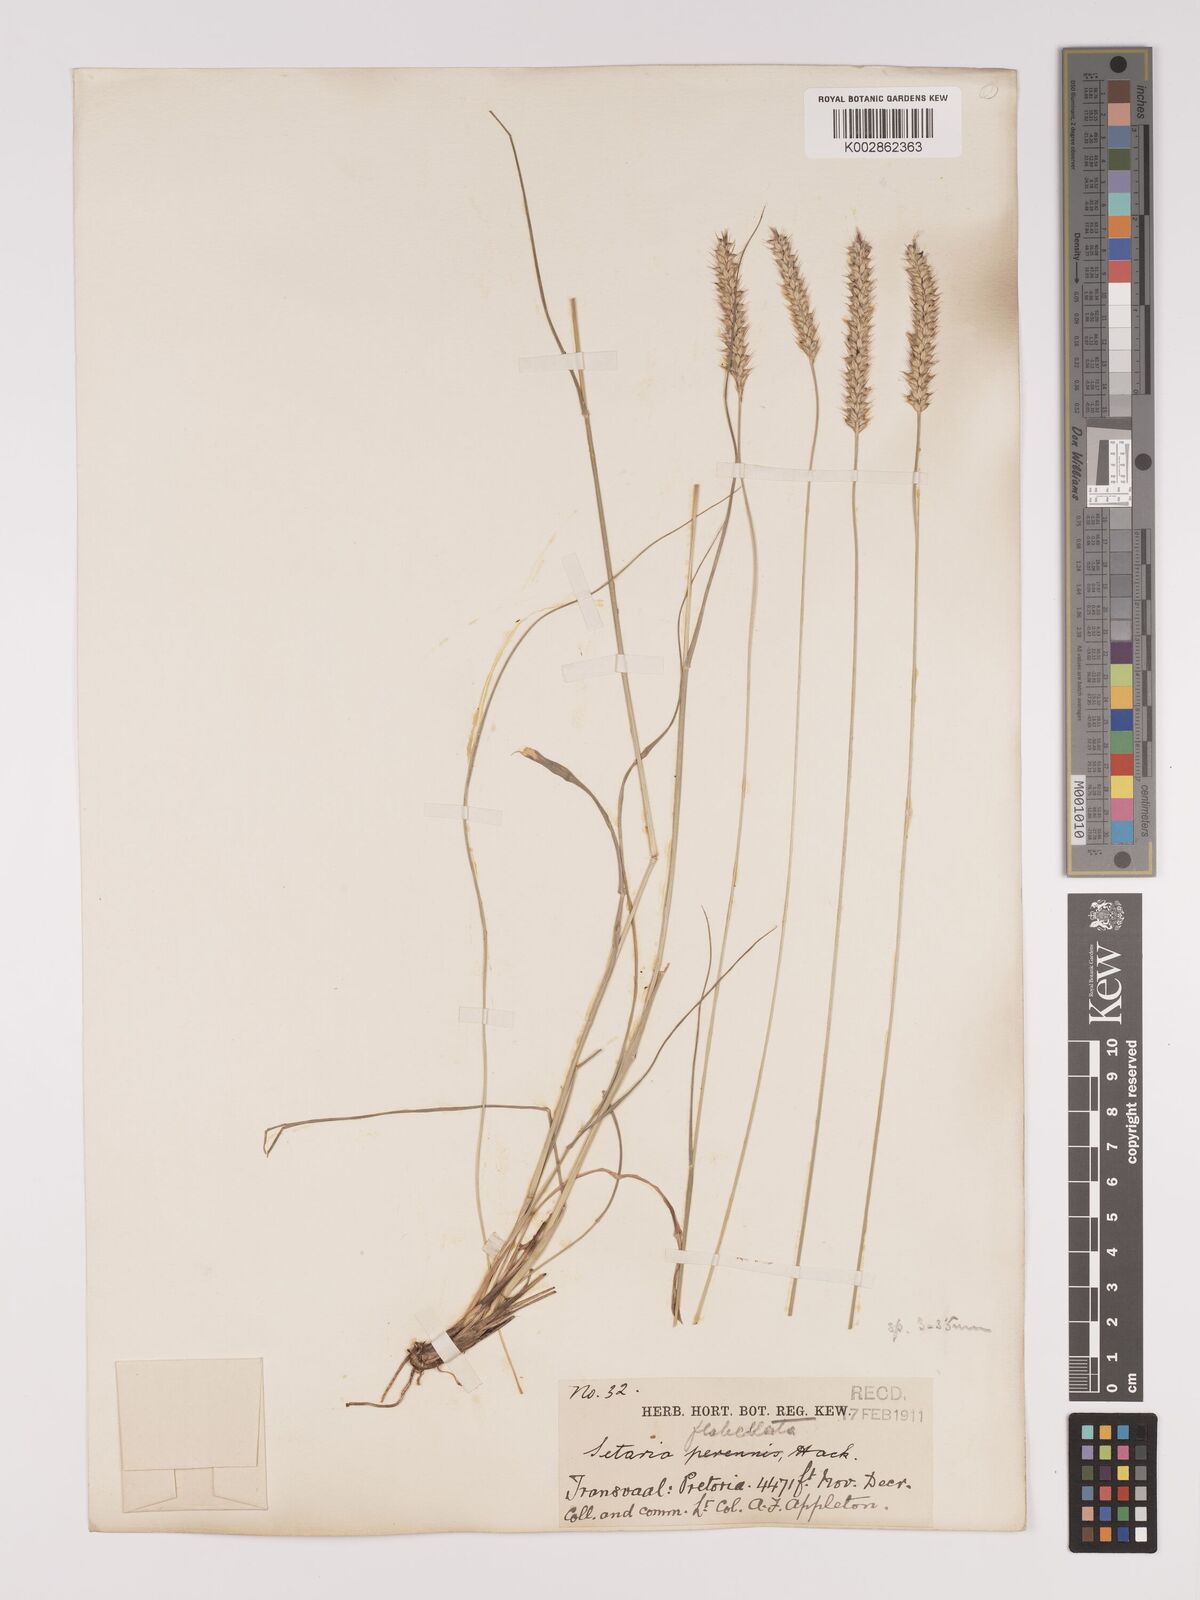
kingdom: Plantae
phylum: Tracheophyta
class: Liliopsida
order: Poales
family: Poaceae
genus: Setaria
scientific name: Setaria sphacelata
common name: African bristlegrass
